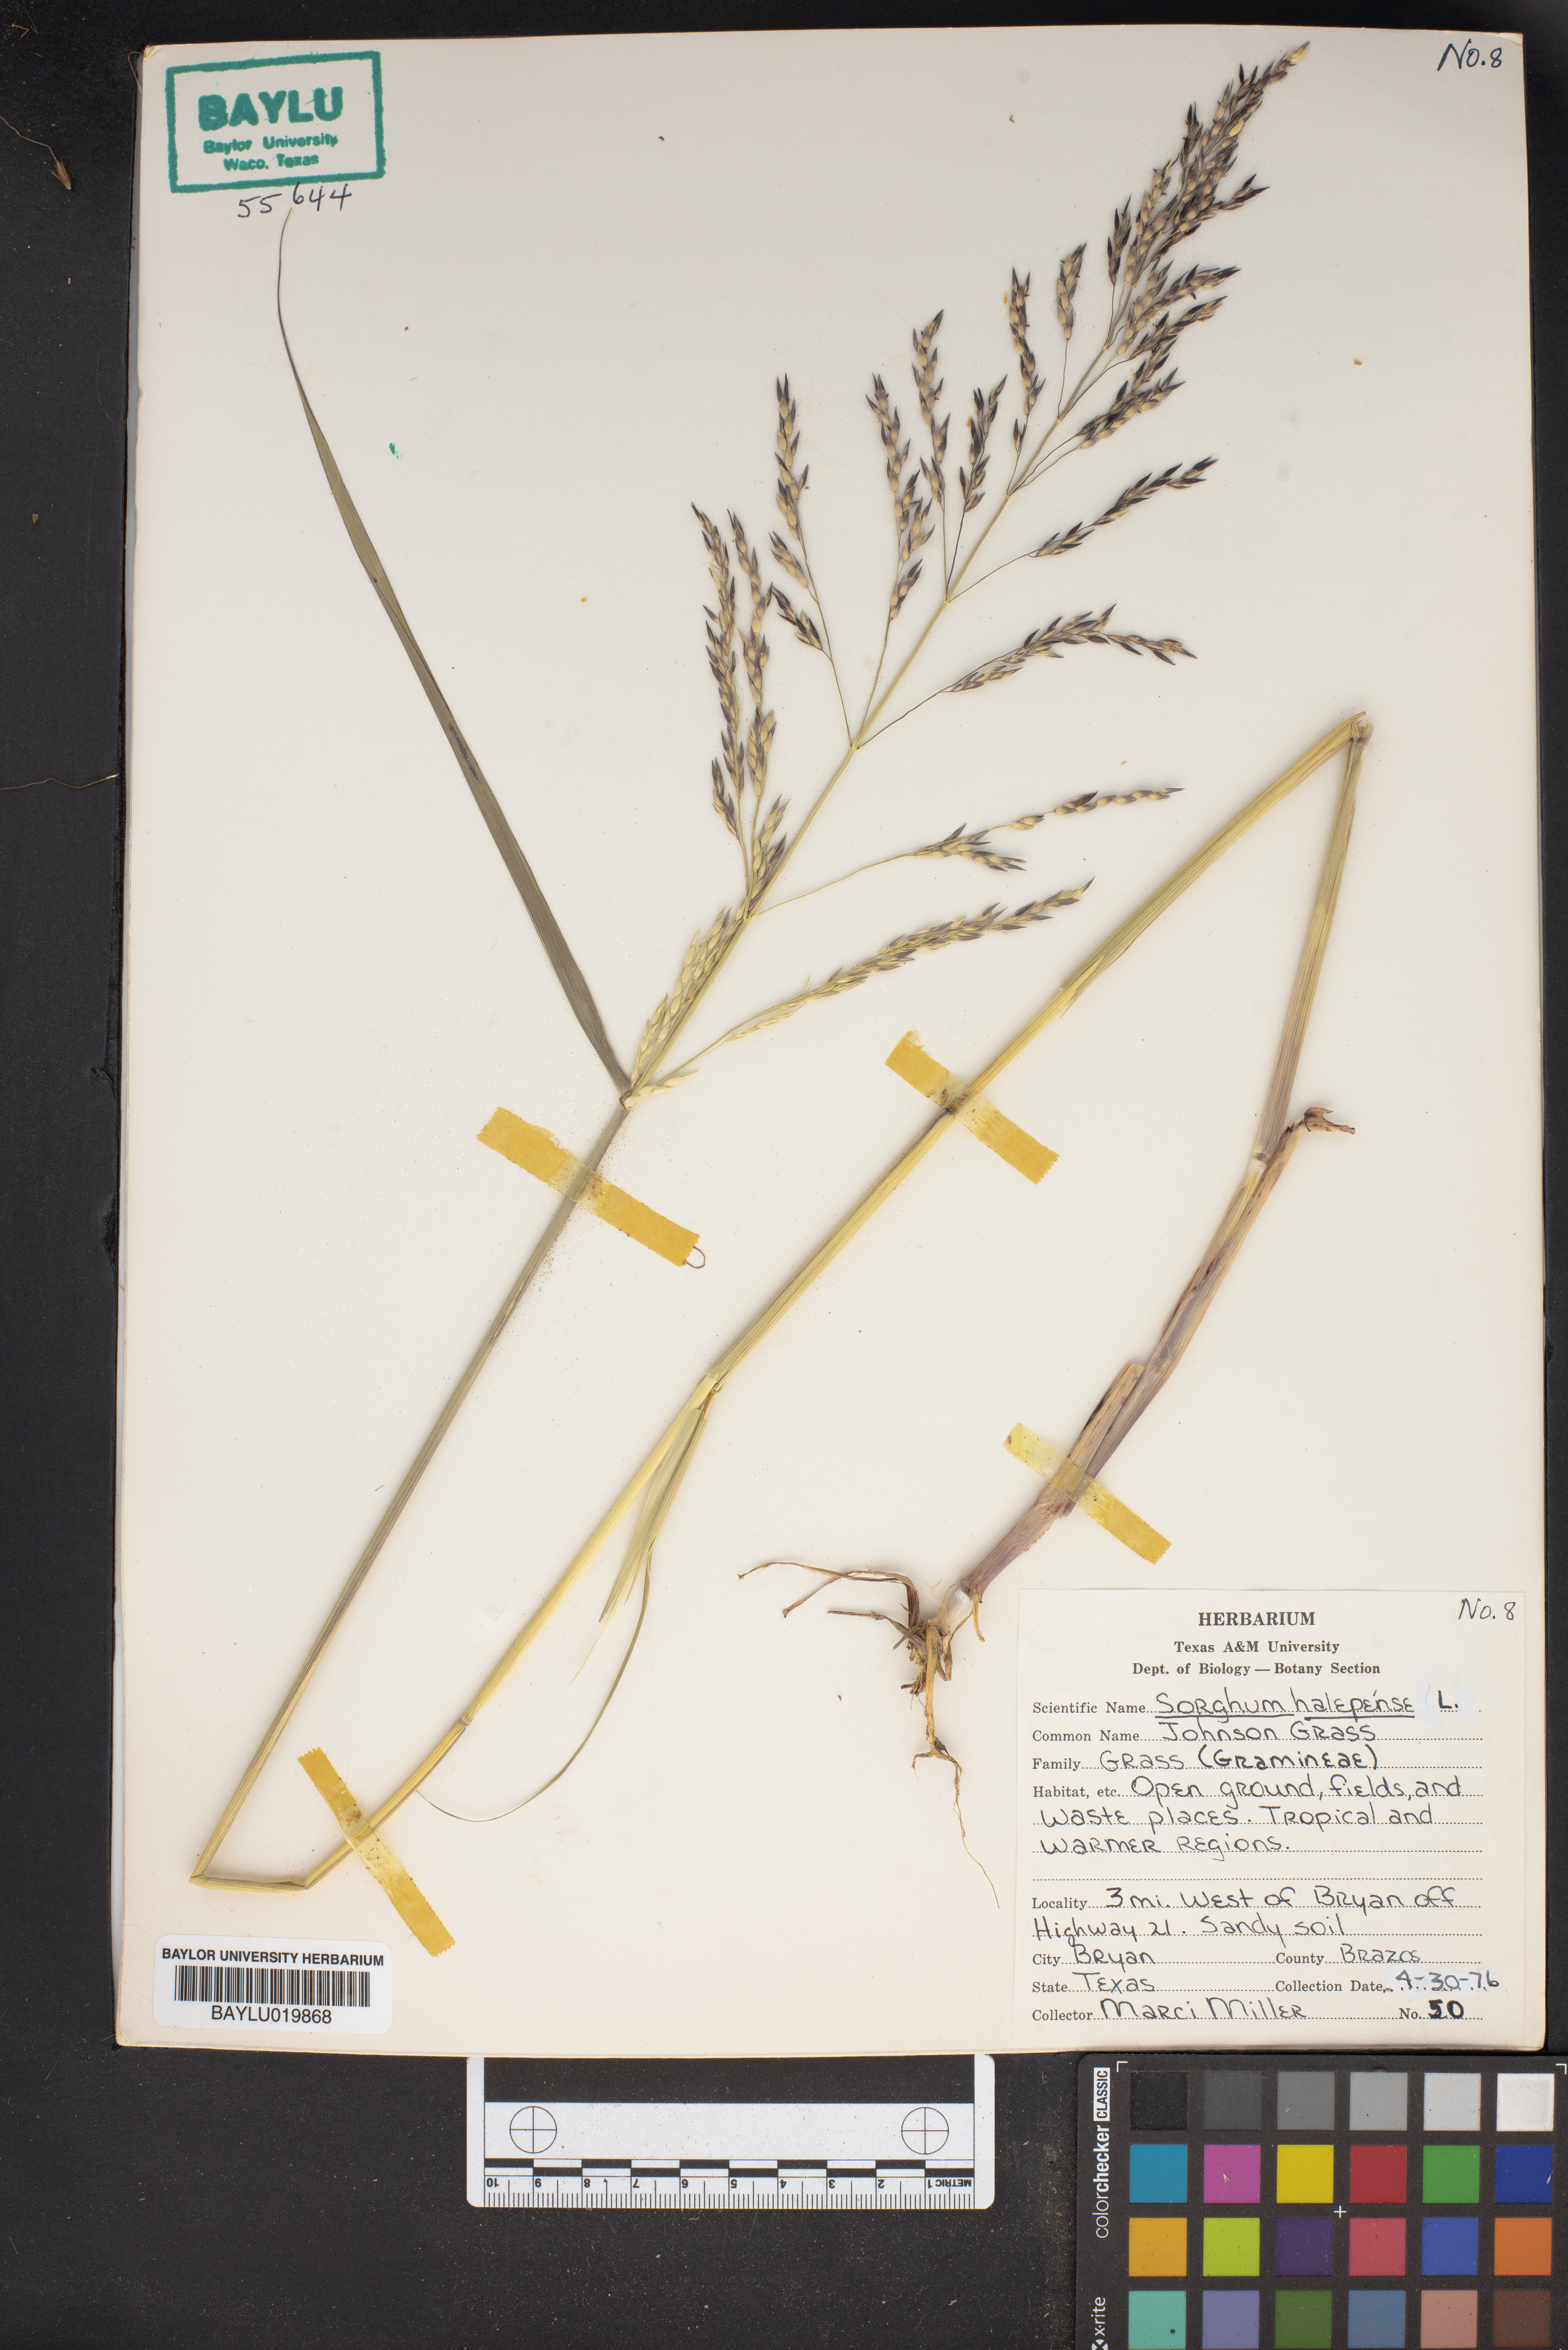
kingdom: Plantae
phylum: Tracheophyta
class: Liliopsida
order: Poales
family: Poaceae
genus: Sorghum
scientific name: Sorghum halepense
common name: Johnson-grass
